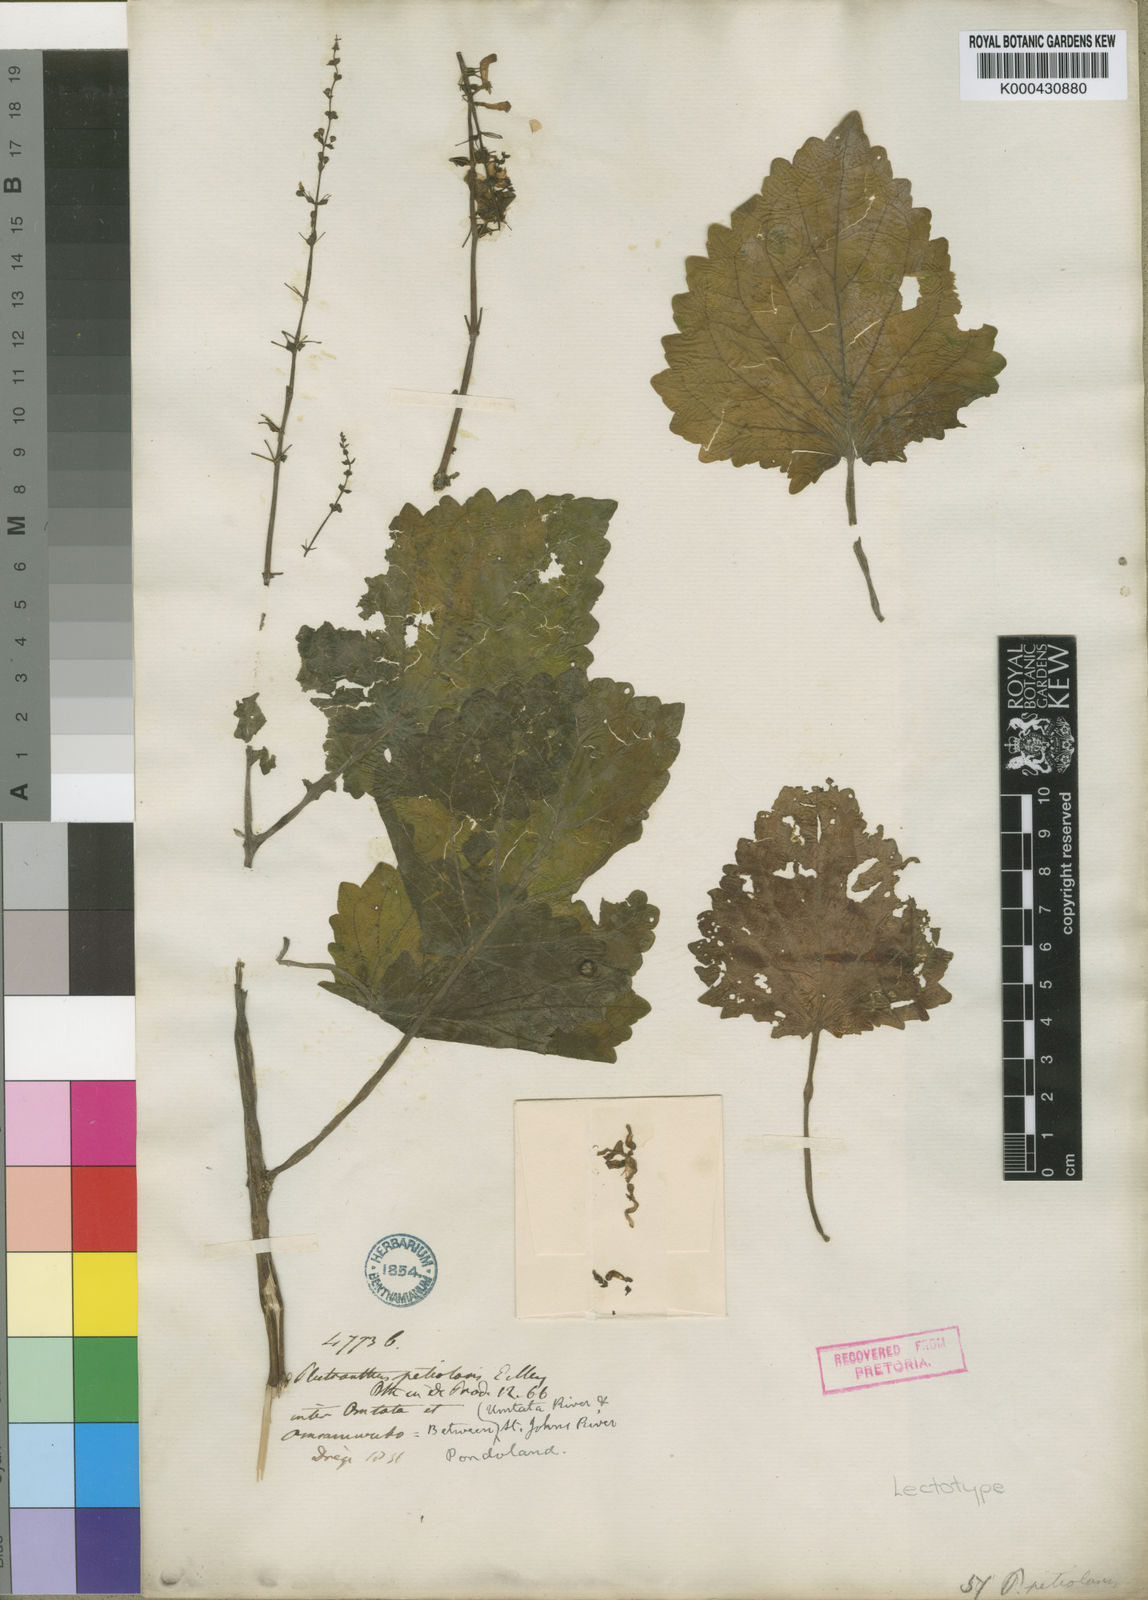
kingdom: Plantae
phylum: Tracheophyta
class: Magnoliopsida
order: Lamiales
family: Lamiaceae
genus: Equilabium
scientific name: Equilabium petiolare
